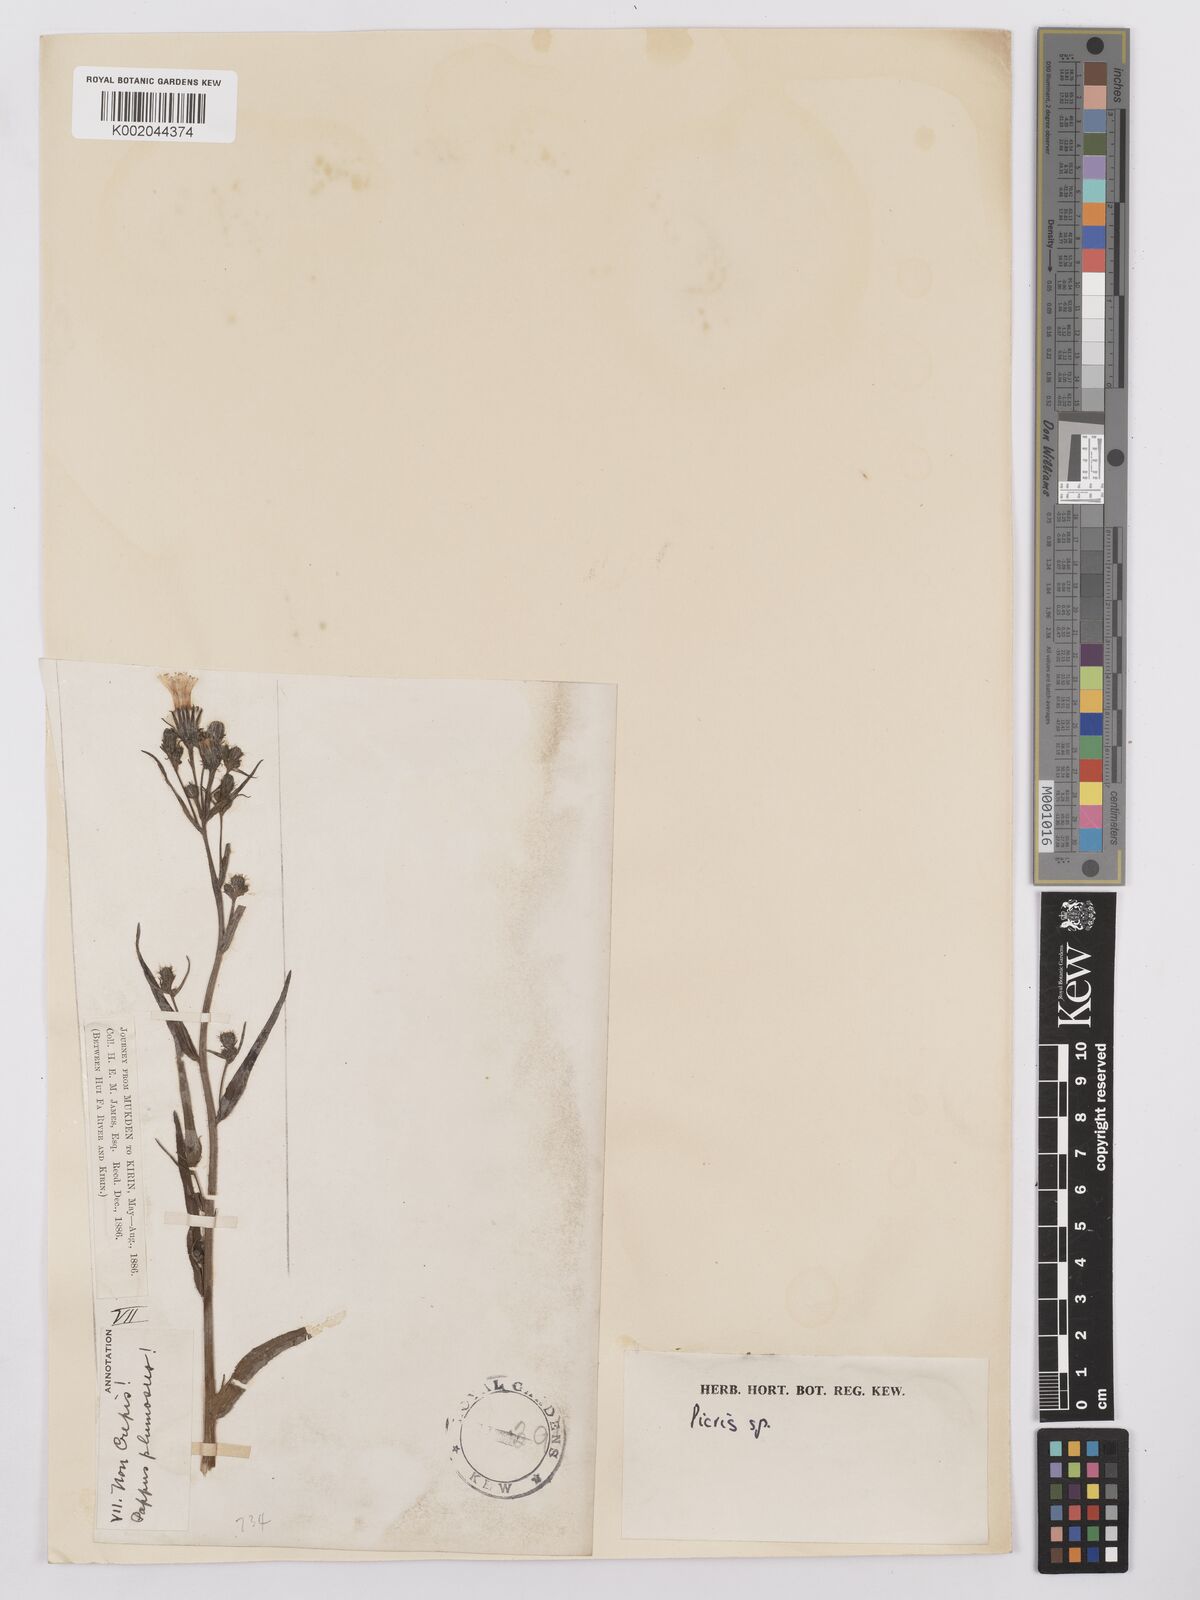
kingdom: Plantae
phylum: Tracheophyta
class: Magnoliopsida
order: Asterales
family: Asteraceae
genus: Picris
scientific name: Picris
